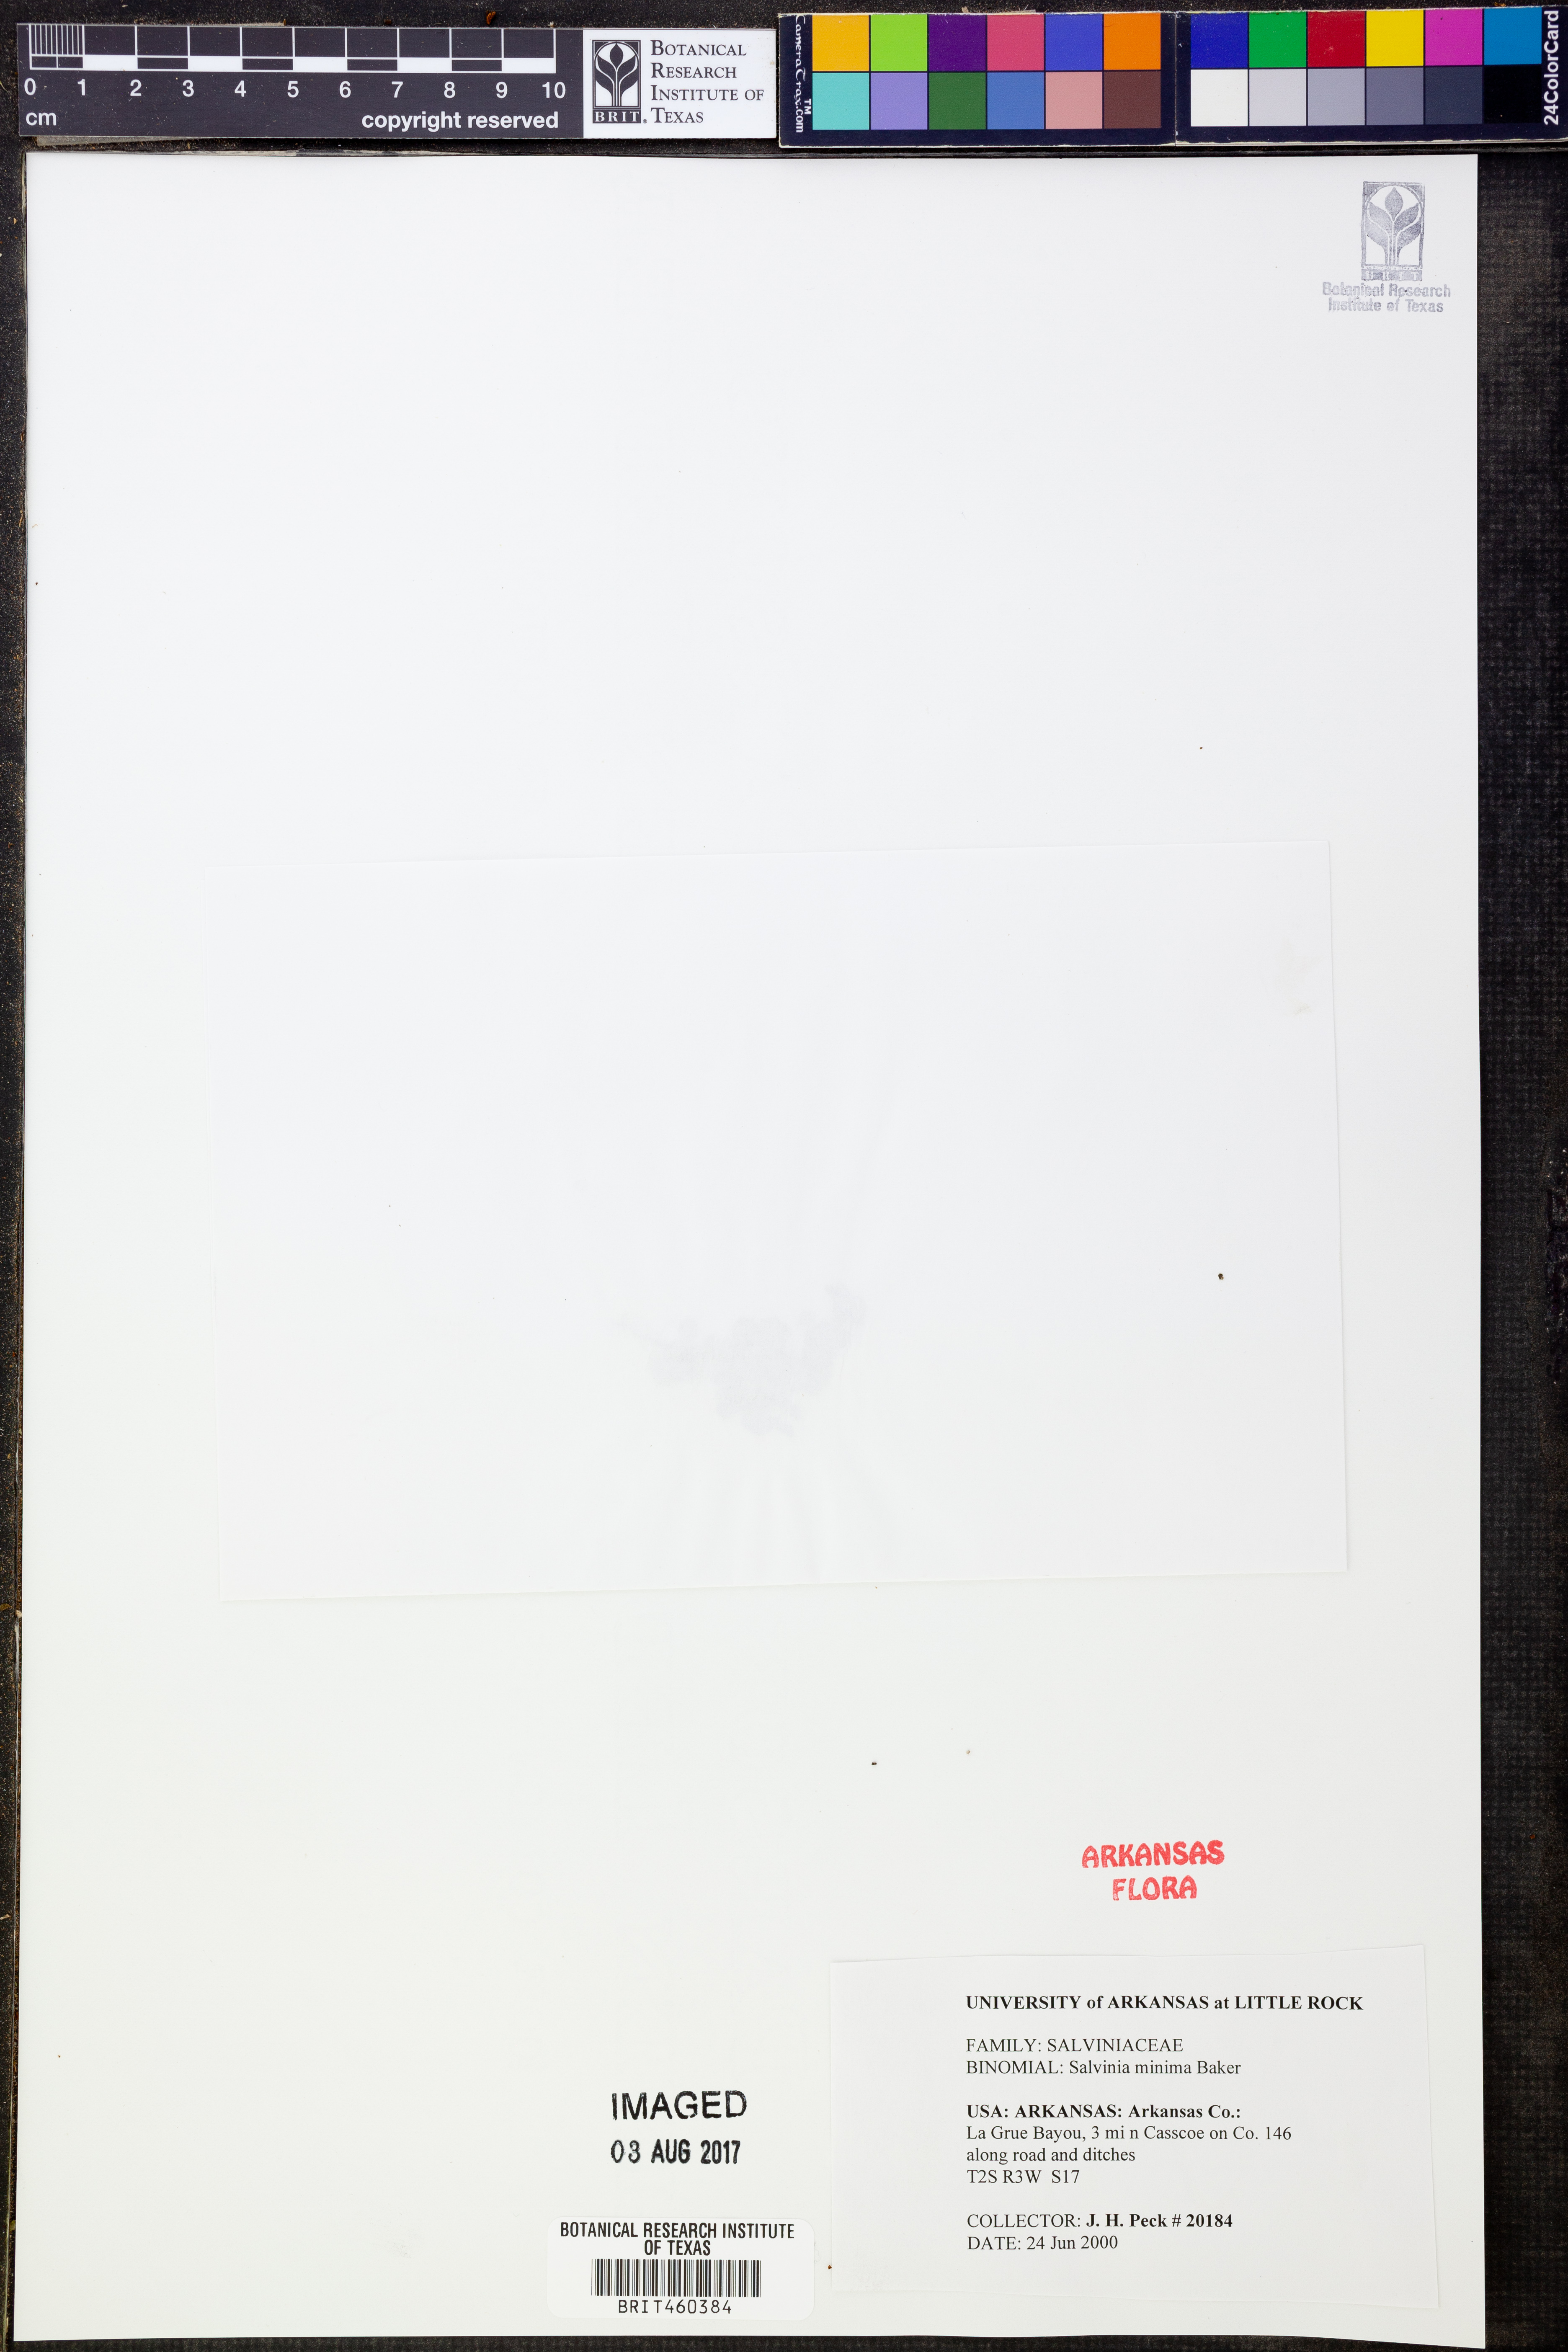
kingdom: Plantae
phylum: Tracheophyta
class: Polypodiopsida
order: Salviniales
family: Salviniaceae
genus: Salvinia
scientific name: Salvinia minima
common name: Water spangles
